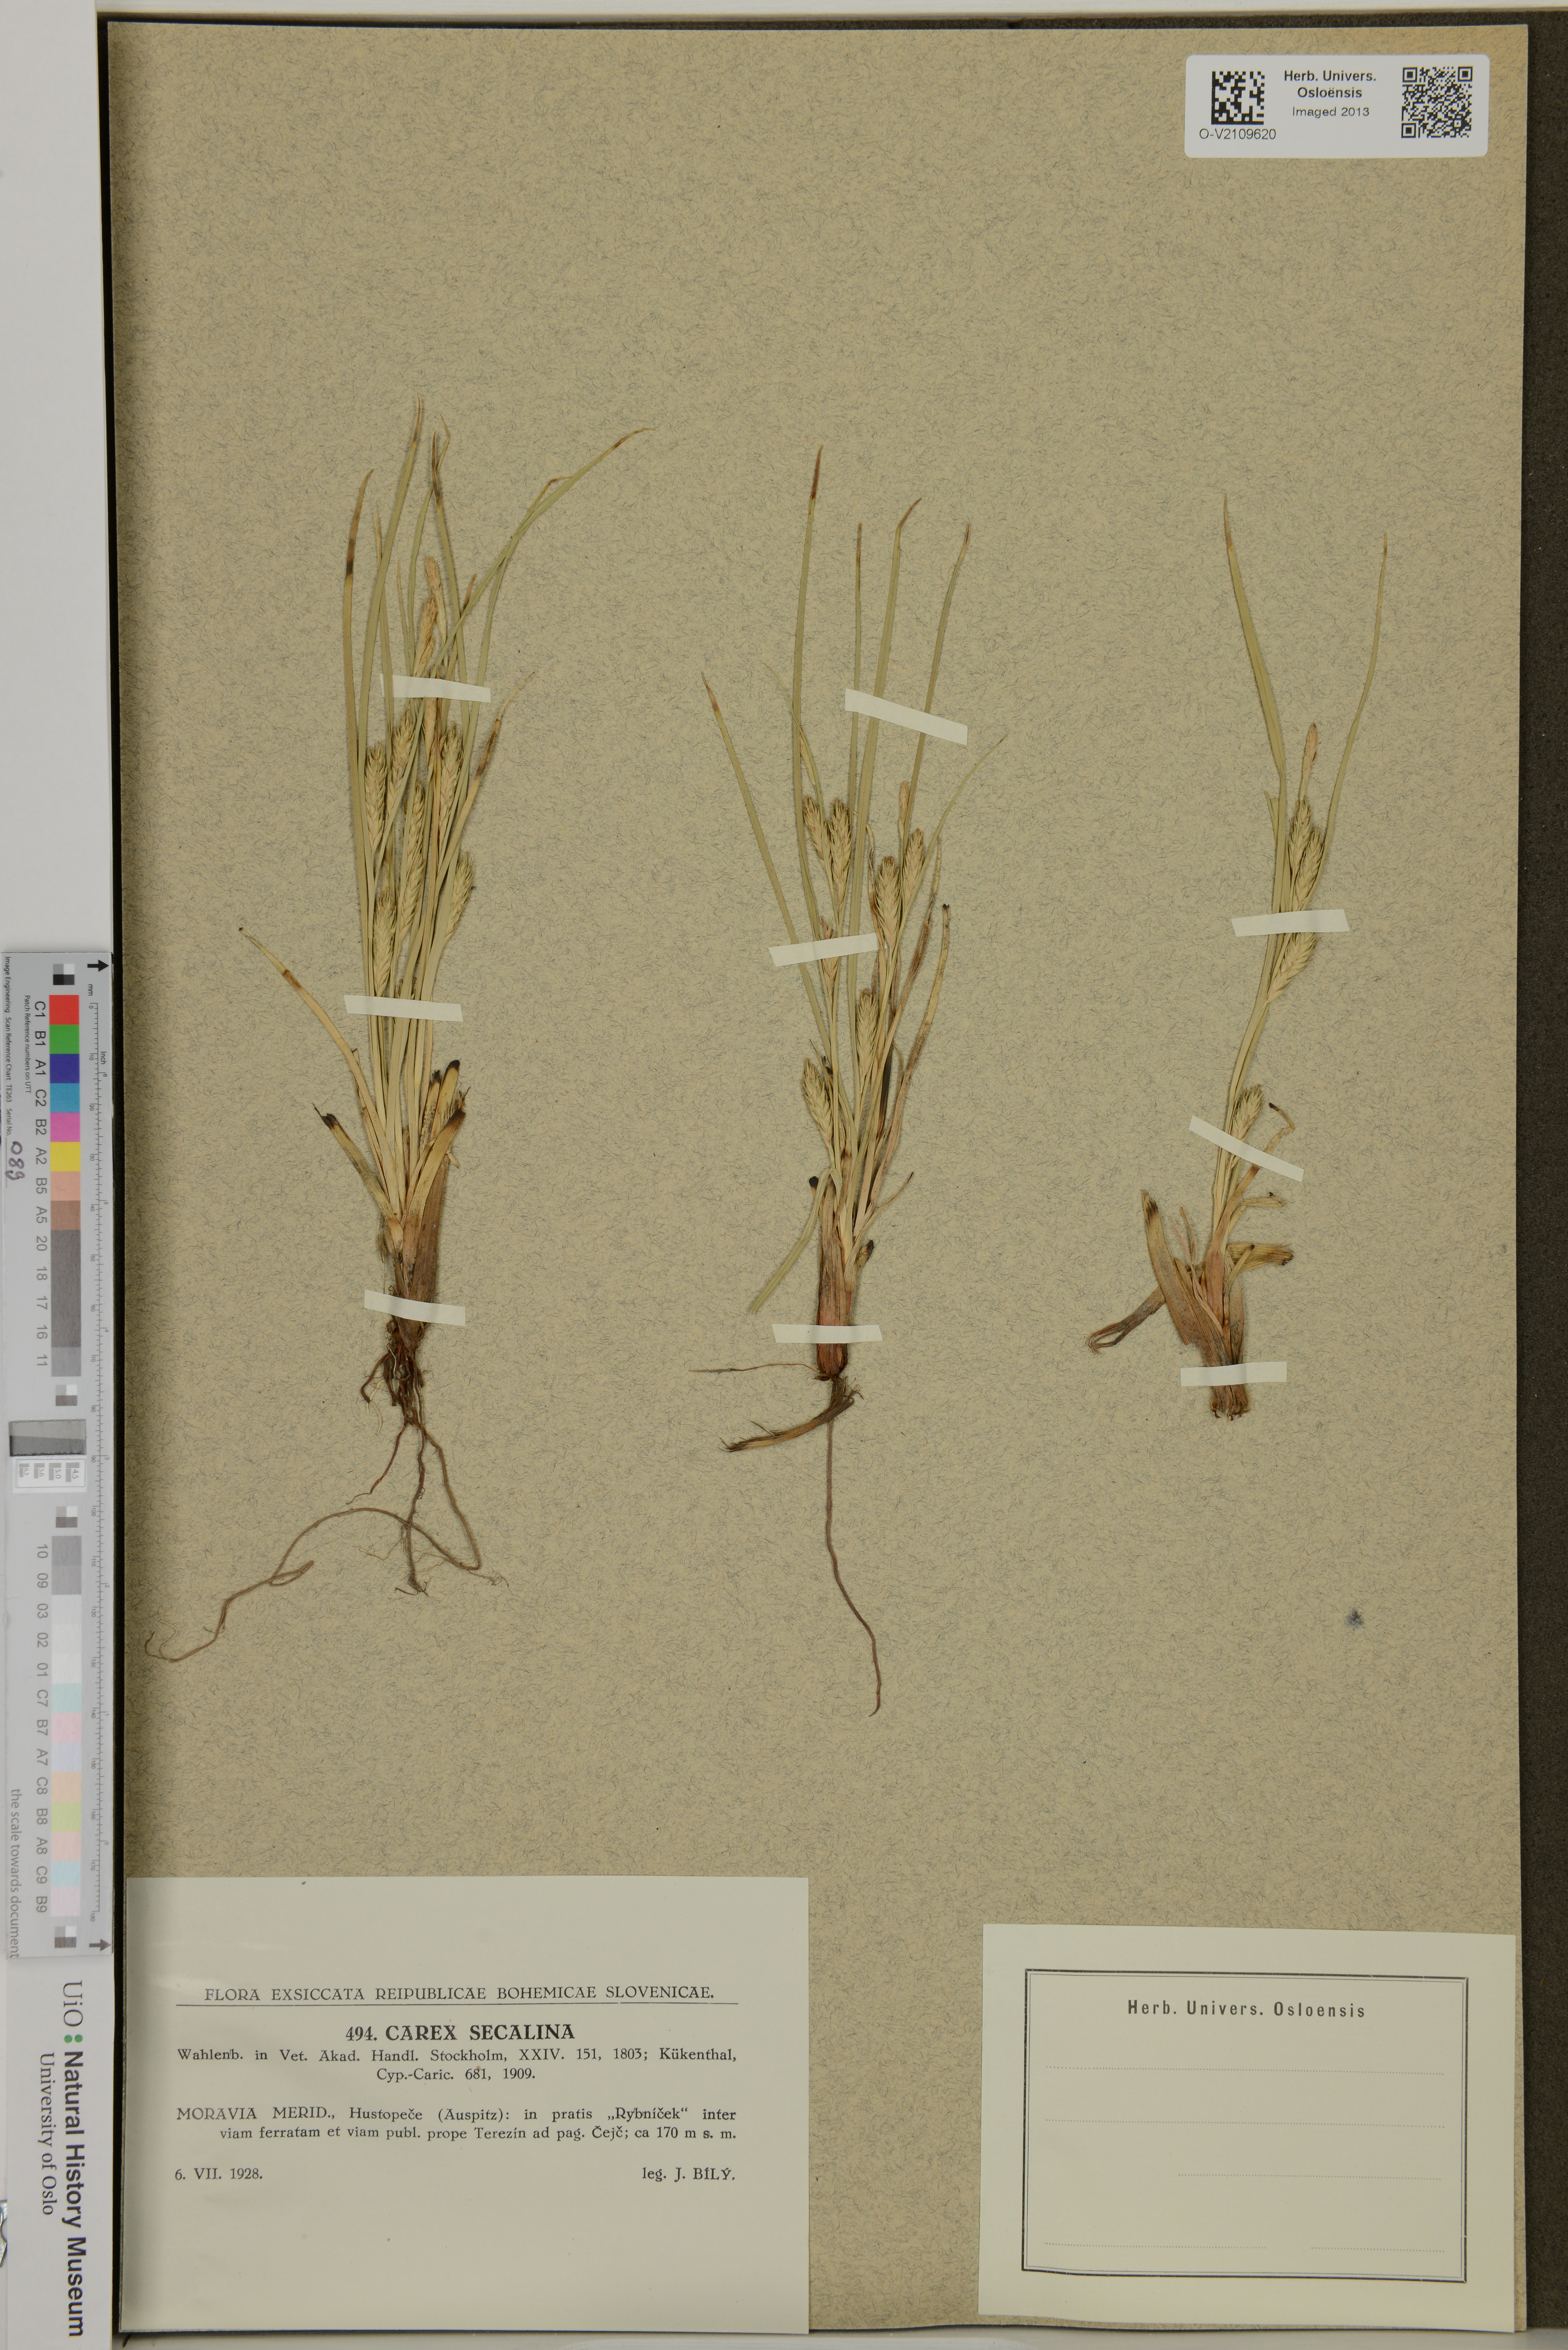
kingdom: Plantae
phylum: Tracheophyta
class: Liliopsida
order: Poales
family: Cyperaceae
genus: Carex
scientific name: Carex secalina
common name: Rye sedge
